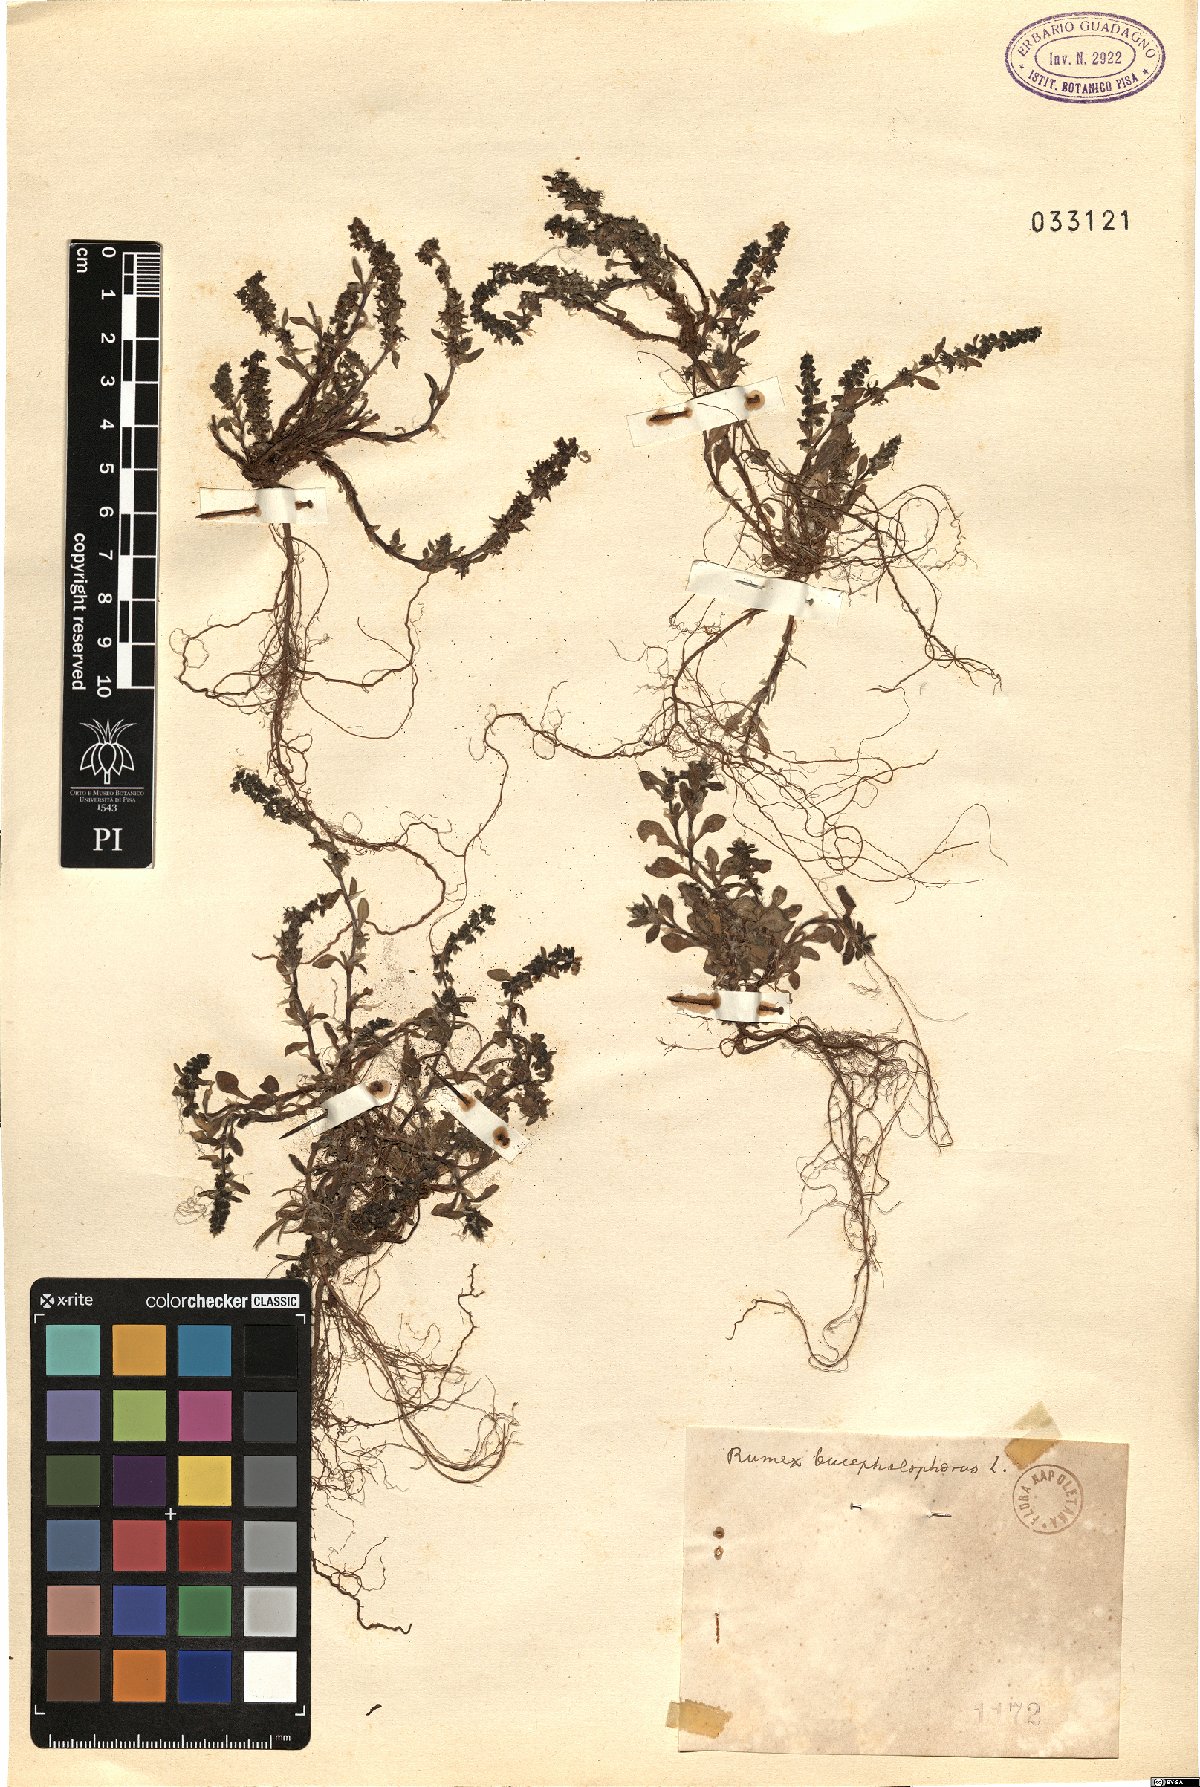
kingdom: Plantae
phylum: Tracheophyta
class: Magnoliopsida
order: Caryophyllales
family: Polygonaceae
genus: Rumex
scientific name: Rumex bucephalophorus
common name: Red dock
